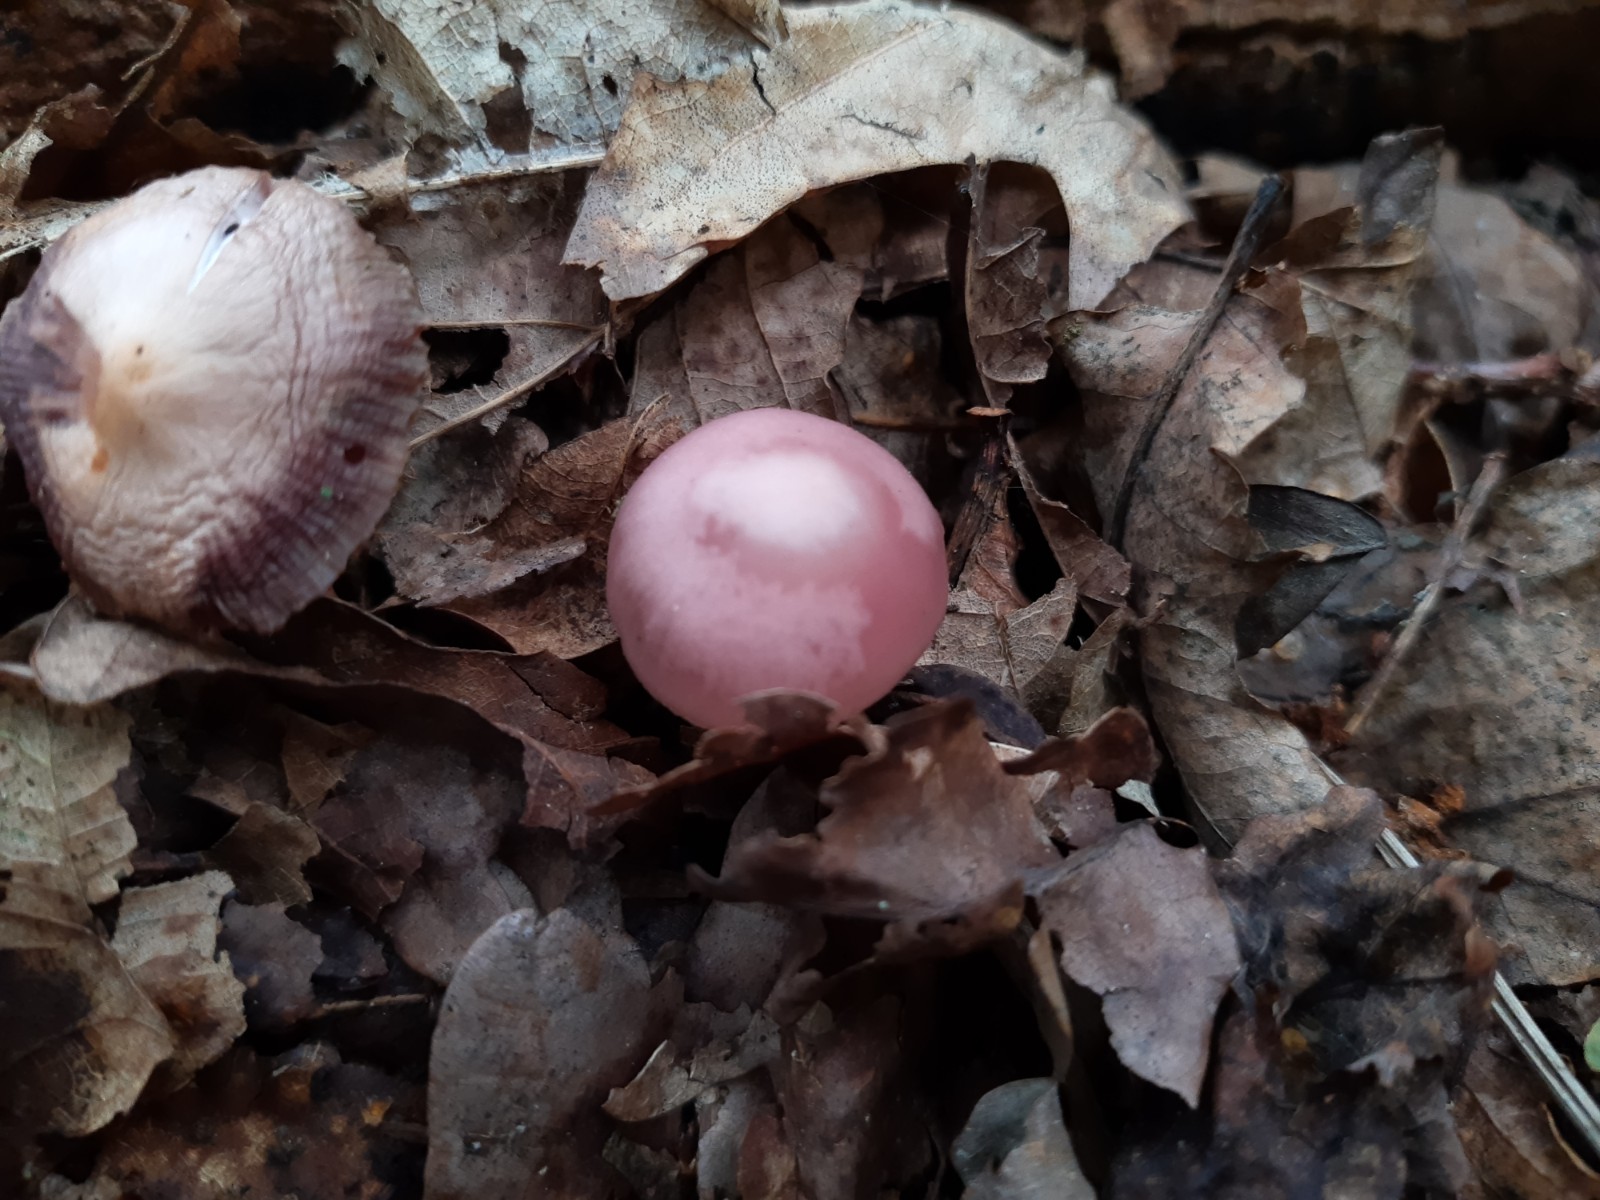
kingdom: Fungi
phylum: Basidiomycota
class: Agaricomycetes
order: Agaricales
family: Mycenaceae
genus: Mycena
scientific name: Mycena rosea
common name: rosa huesvamp
